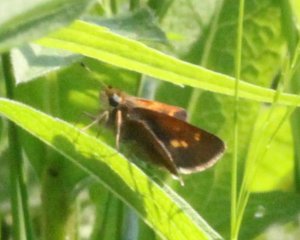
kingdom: Animalia
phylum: Arthropoda
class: Insecta
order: Lepidoptera
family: Hesperiidae
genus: Polites
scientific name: Polites themistocles
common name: Tawny-edged Skipper
